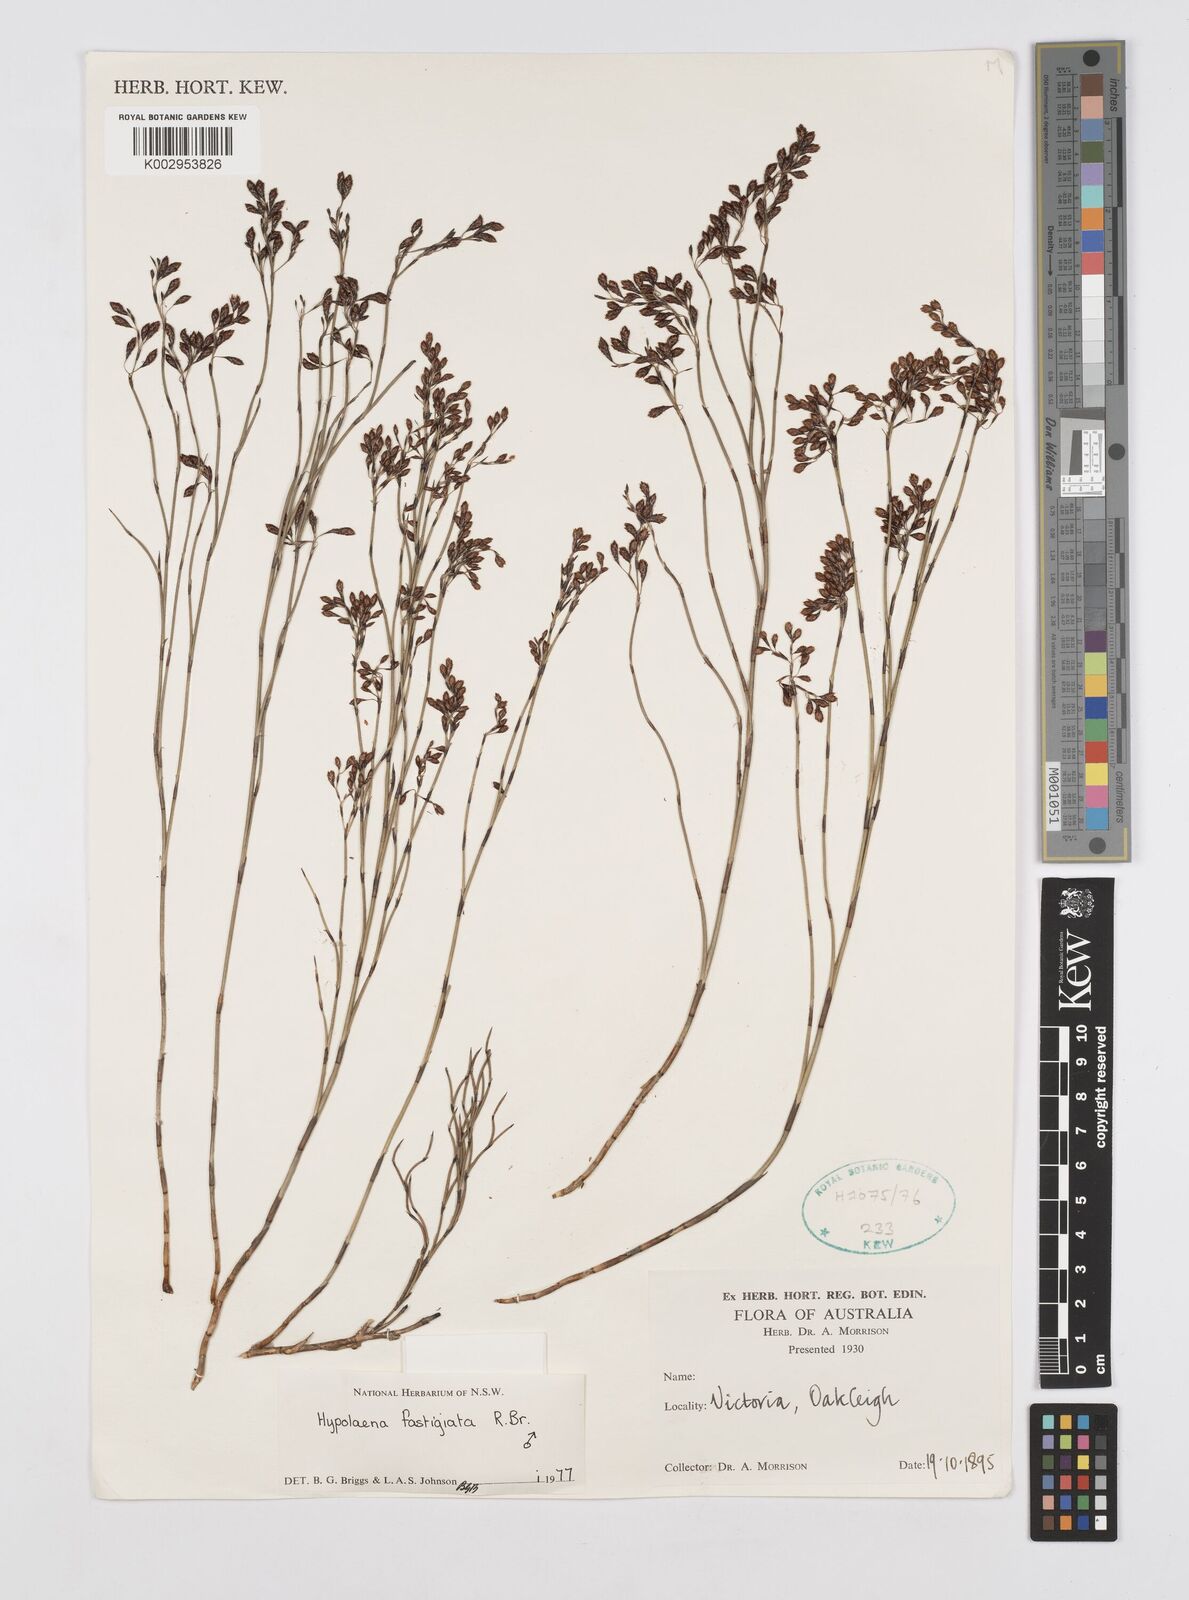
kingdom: Plantae
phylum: Tracheophyta
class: Liliopsida
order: Poales
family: Restionaceae
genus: Hypolaena
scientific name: Hypolaena fastigiata
